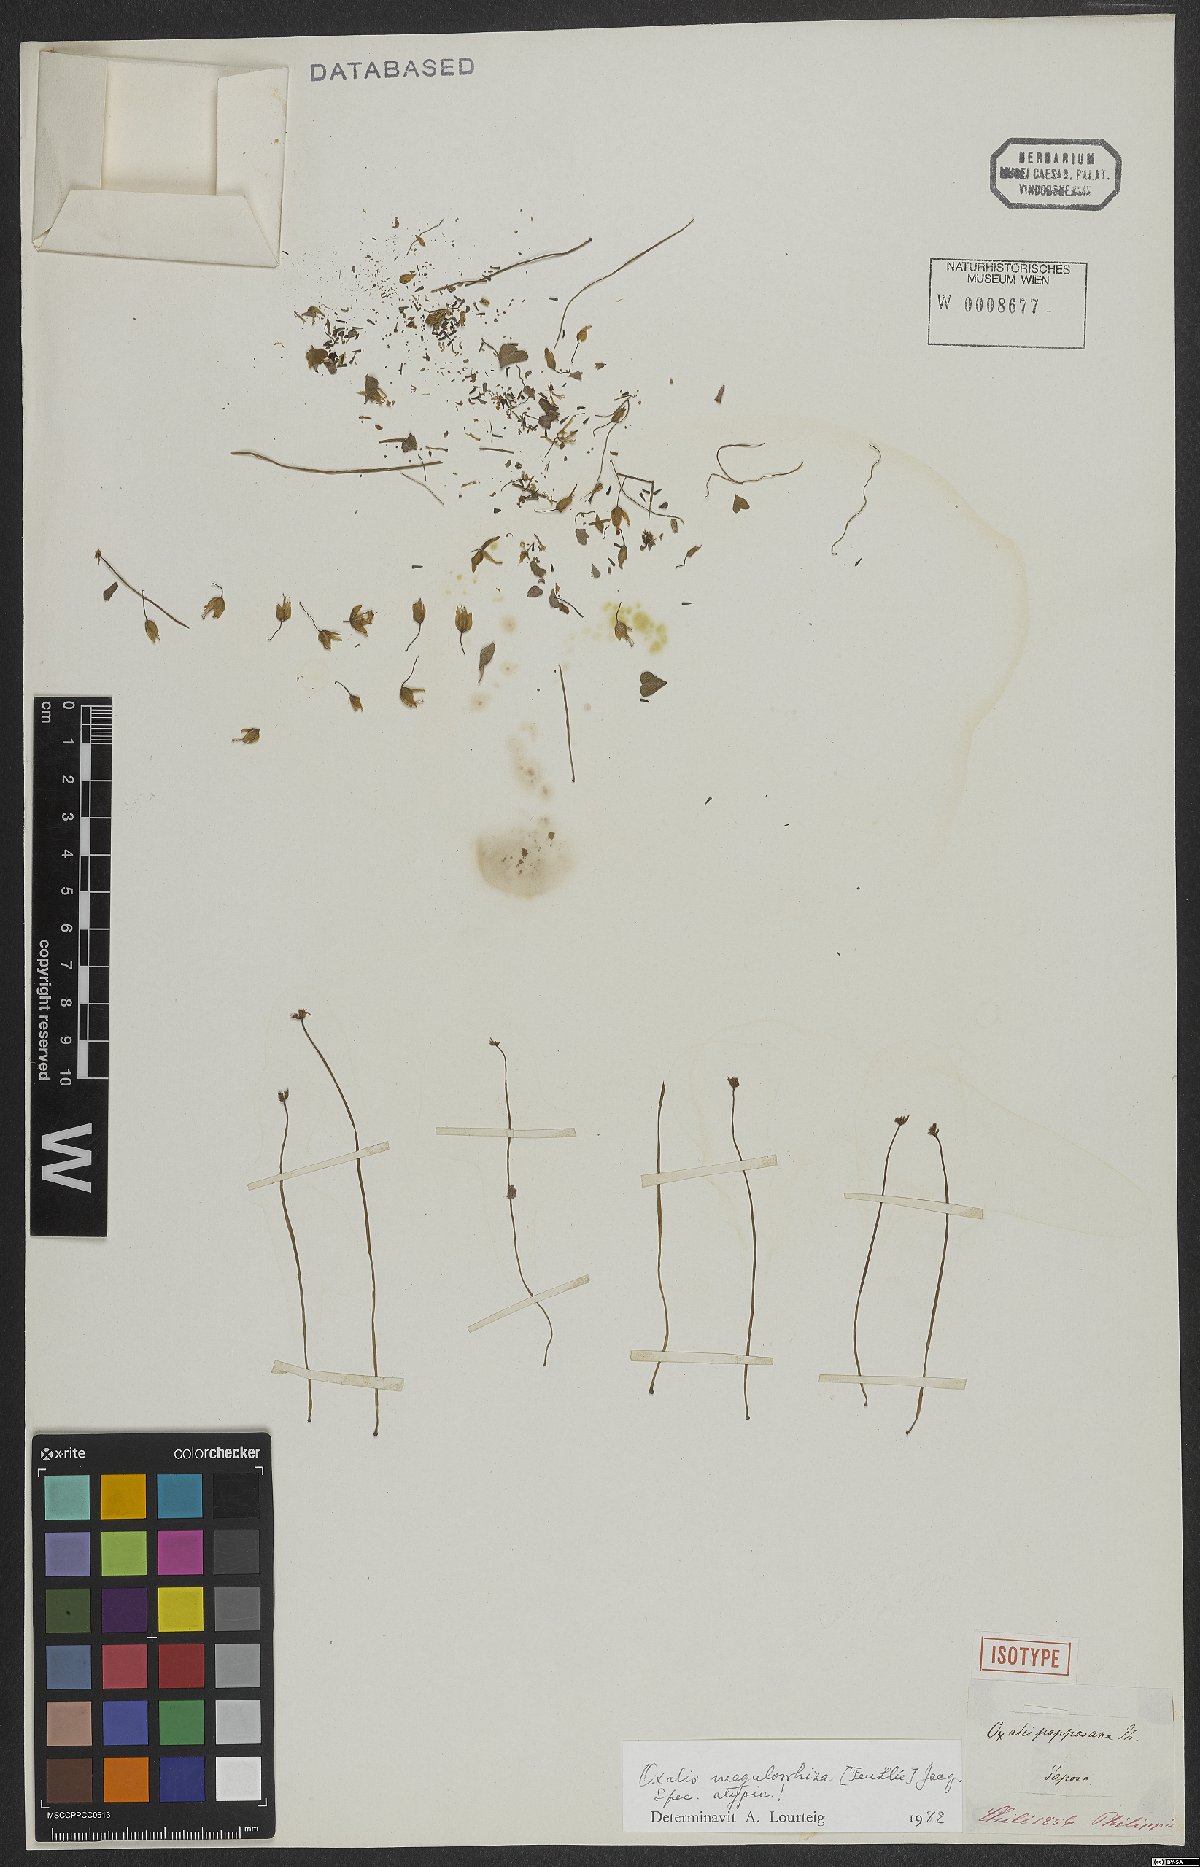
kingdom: Plantae
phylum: Tracheophyta
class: Magnoliopsida
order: Oxalidales
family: Oxalidaceae
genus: Oxalis
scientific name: Oxalis megalorrhiza
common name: Fleshy yellow-sorrel
